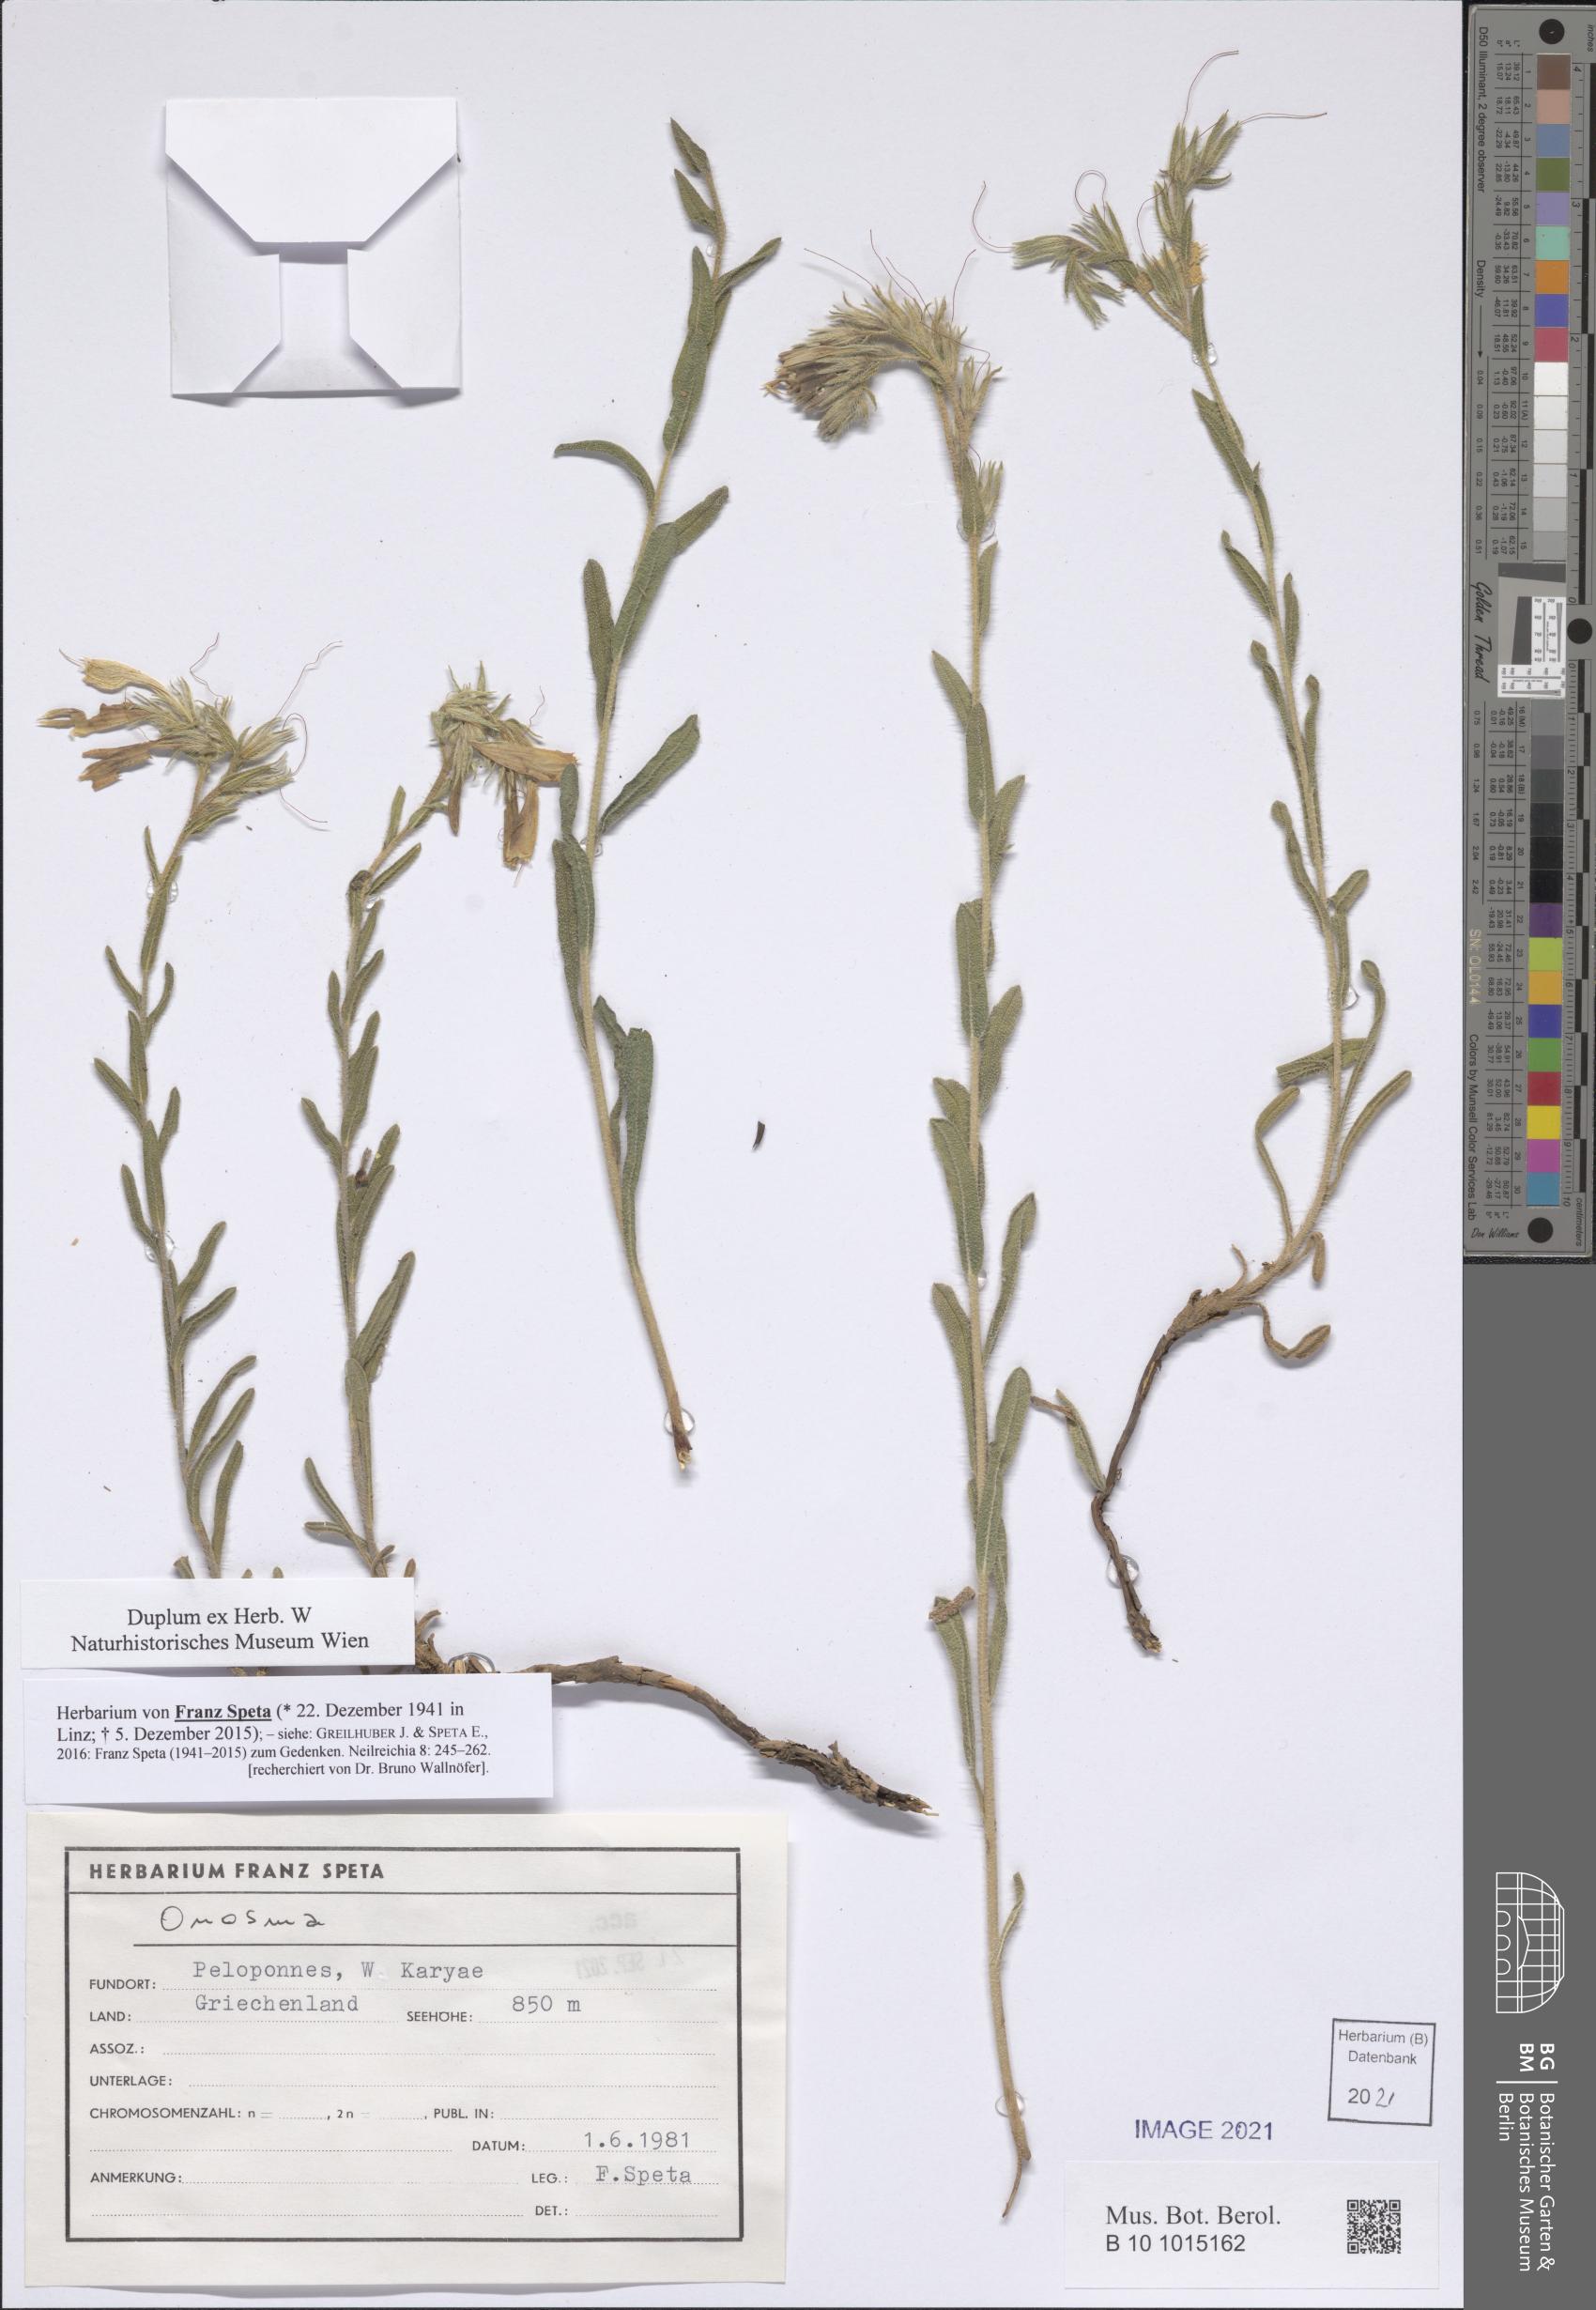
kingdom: Plantae
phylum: Tracheophyta
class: Magnoliopsida
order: Boraginales
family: Boraginaceae
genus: Onosma
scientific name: Onosma
